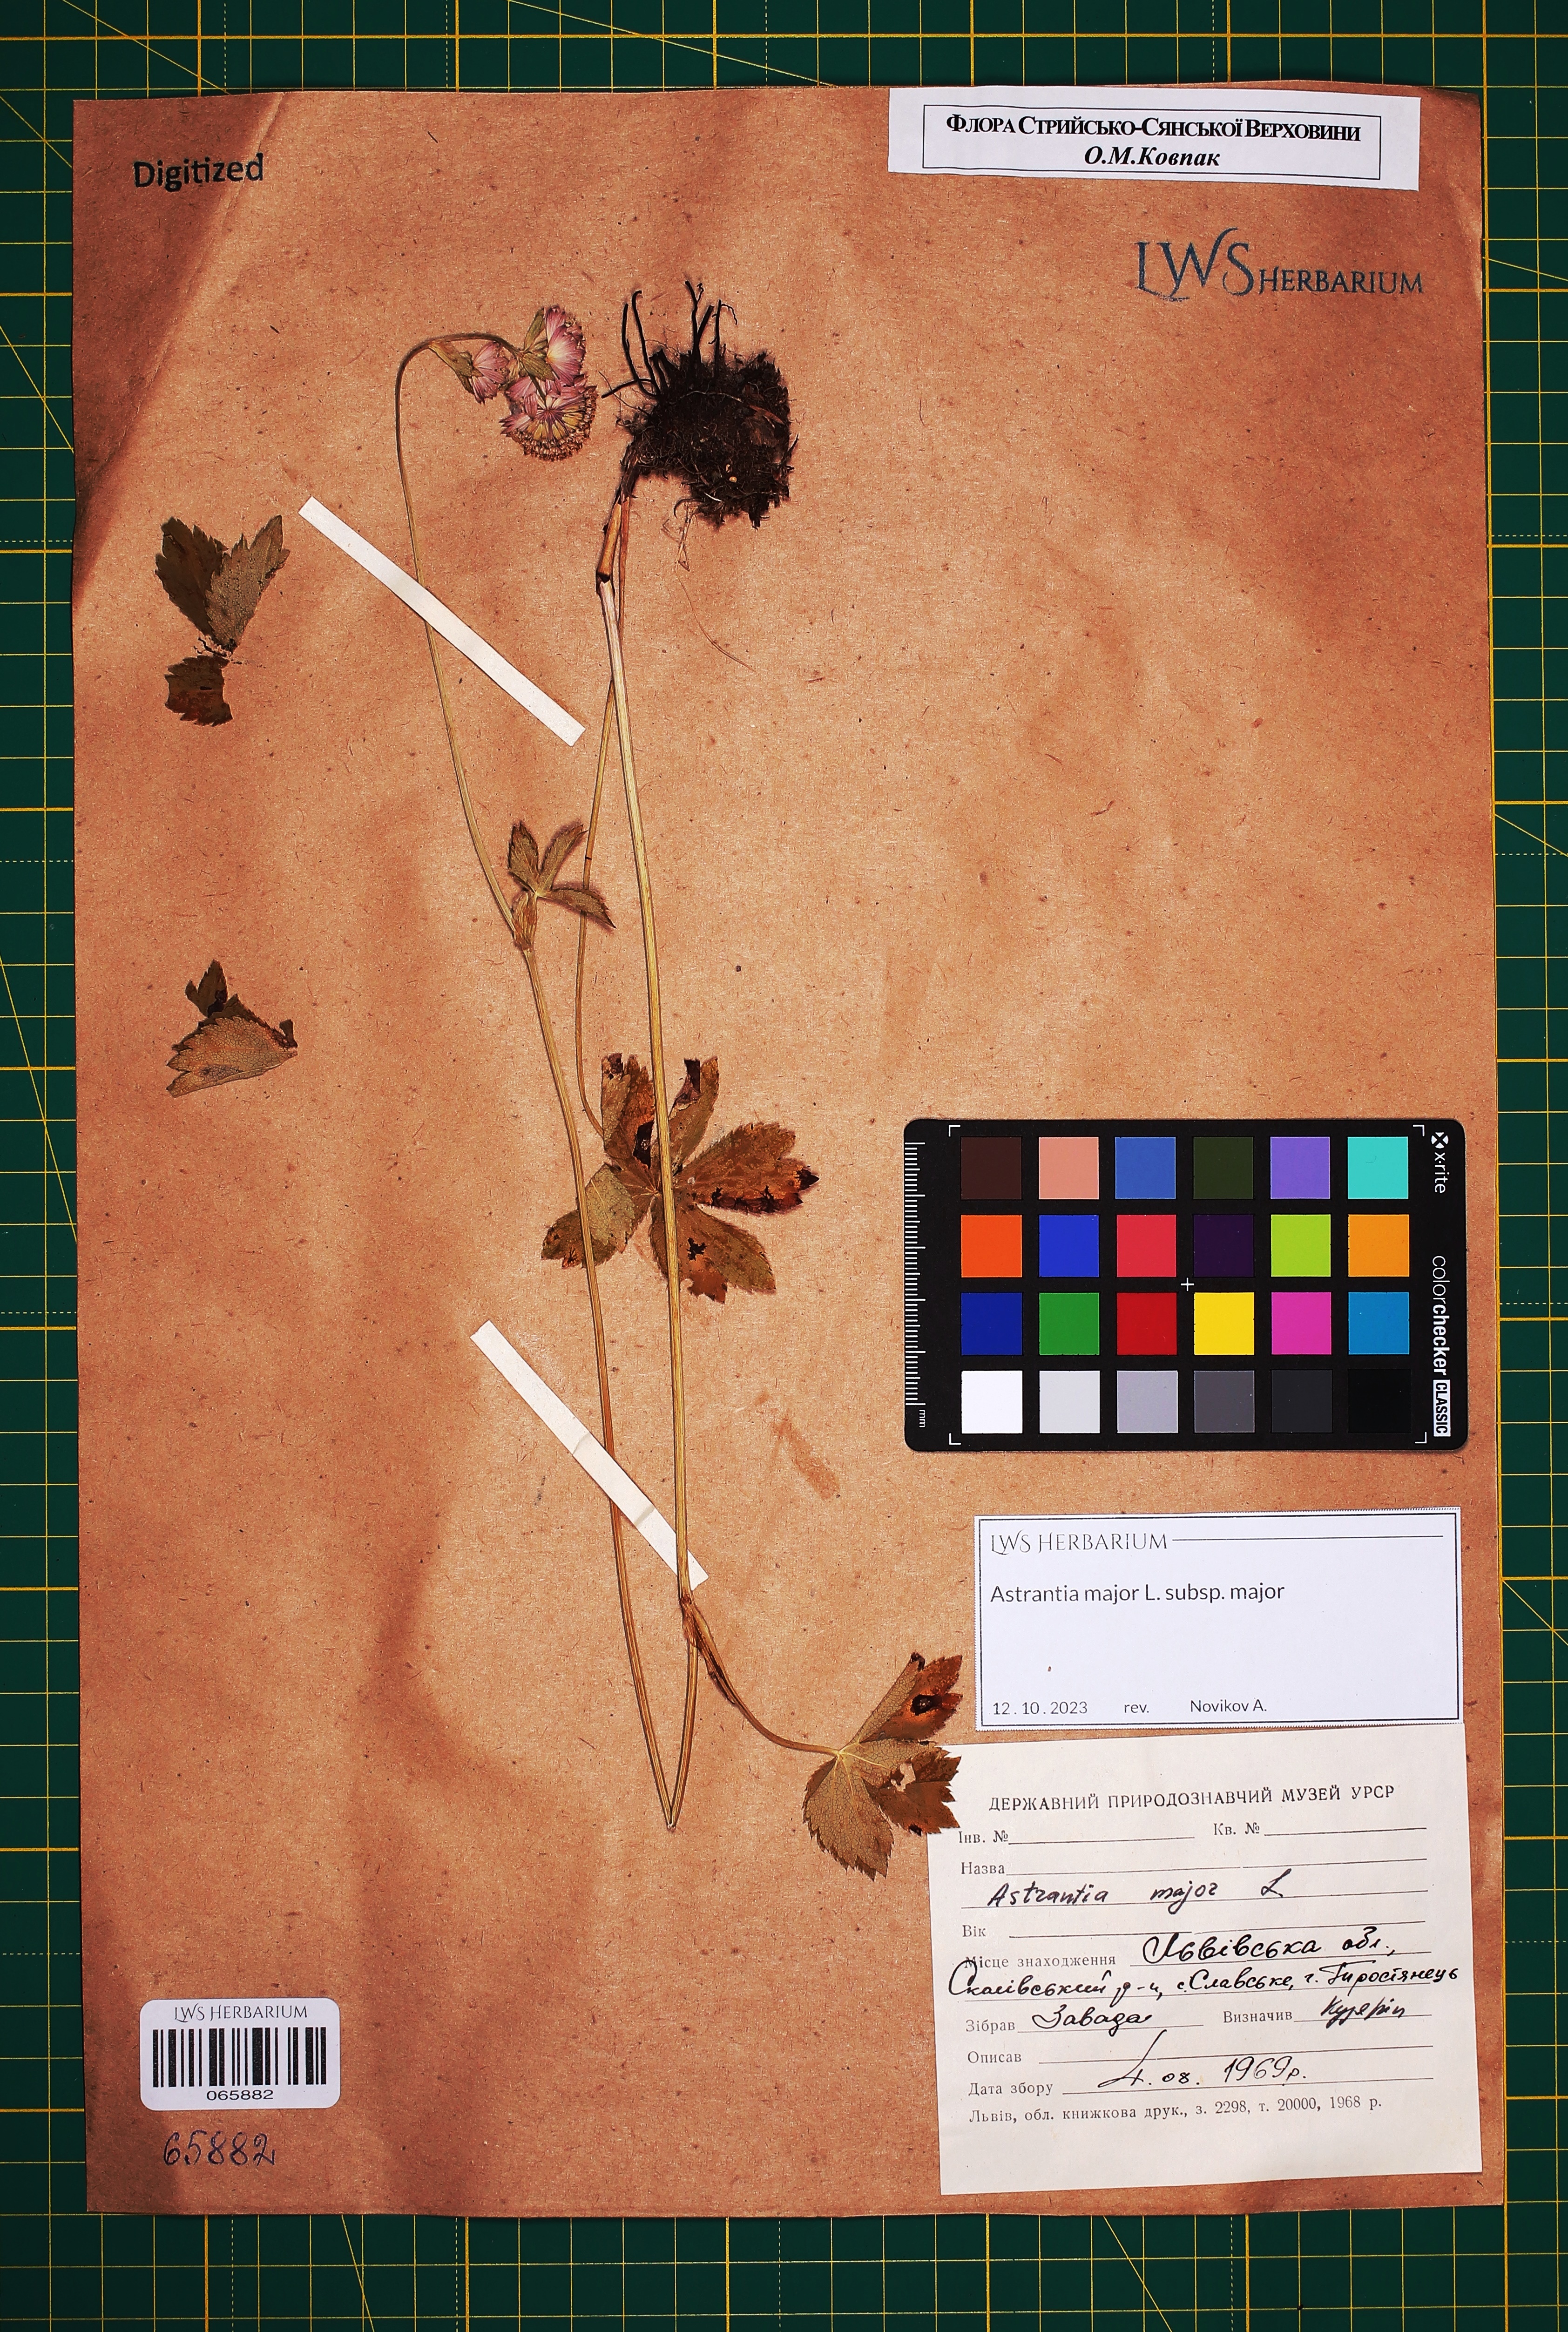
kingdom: Plantae
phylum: Tracheophyta
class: Magnoliopsida
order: Apiales
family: Apiaceae
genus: Astrantia
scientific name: Astrantia major
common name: Greater masterwort
